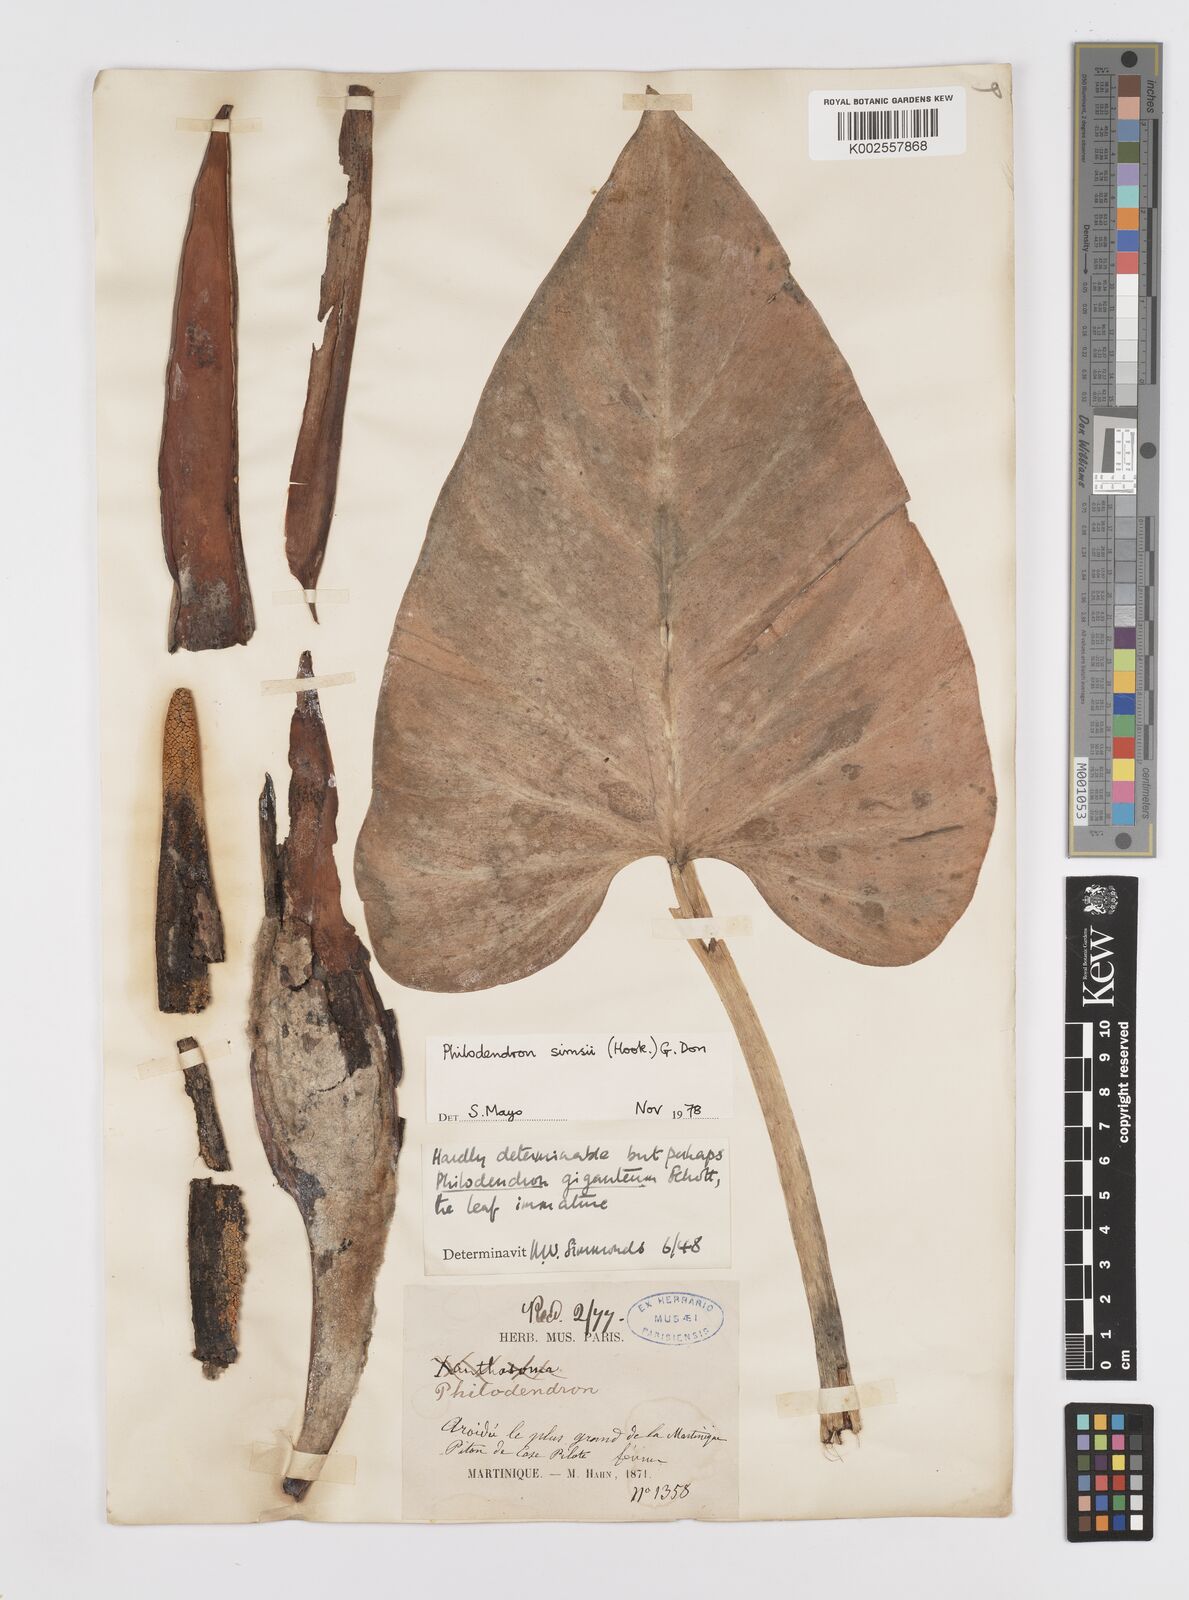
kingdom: Plantae
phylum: Tracheophyta
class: Liliopsida
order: Alismatales
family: Araceae
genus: Philodendron
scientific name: Philodendron
